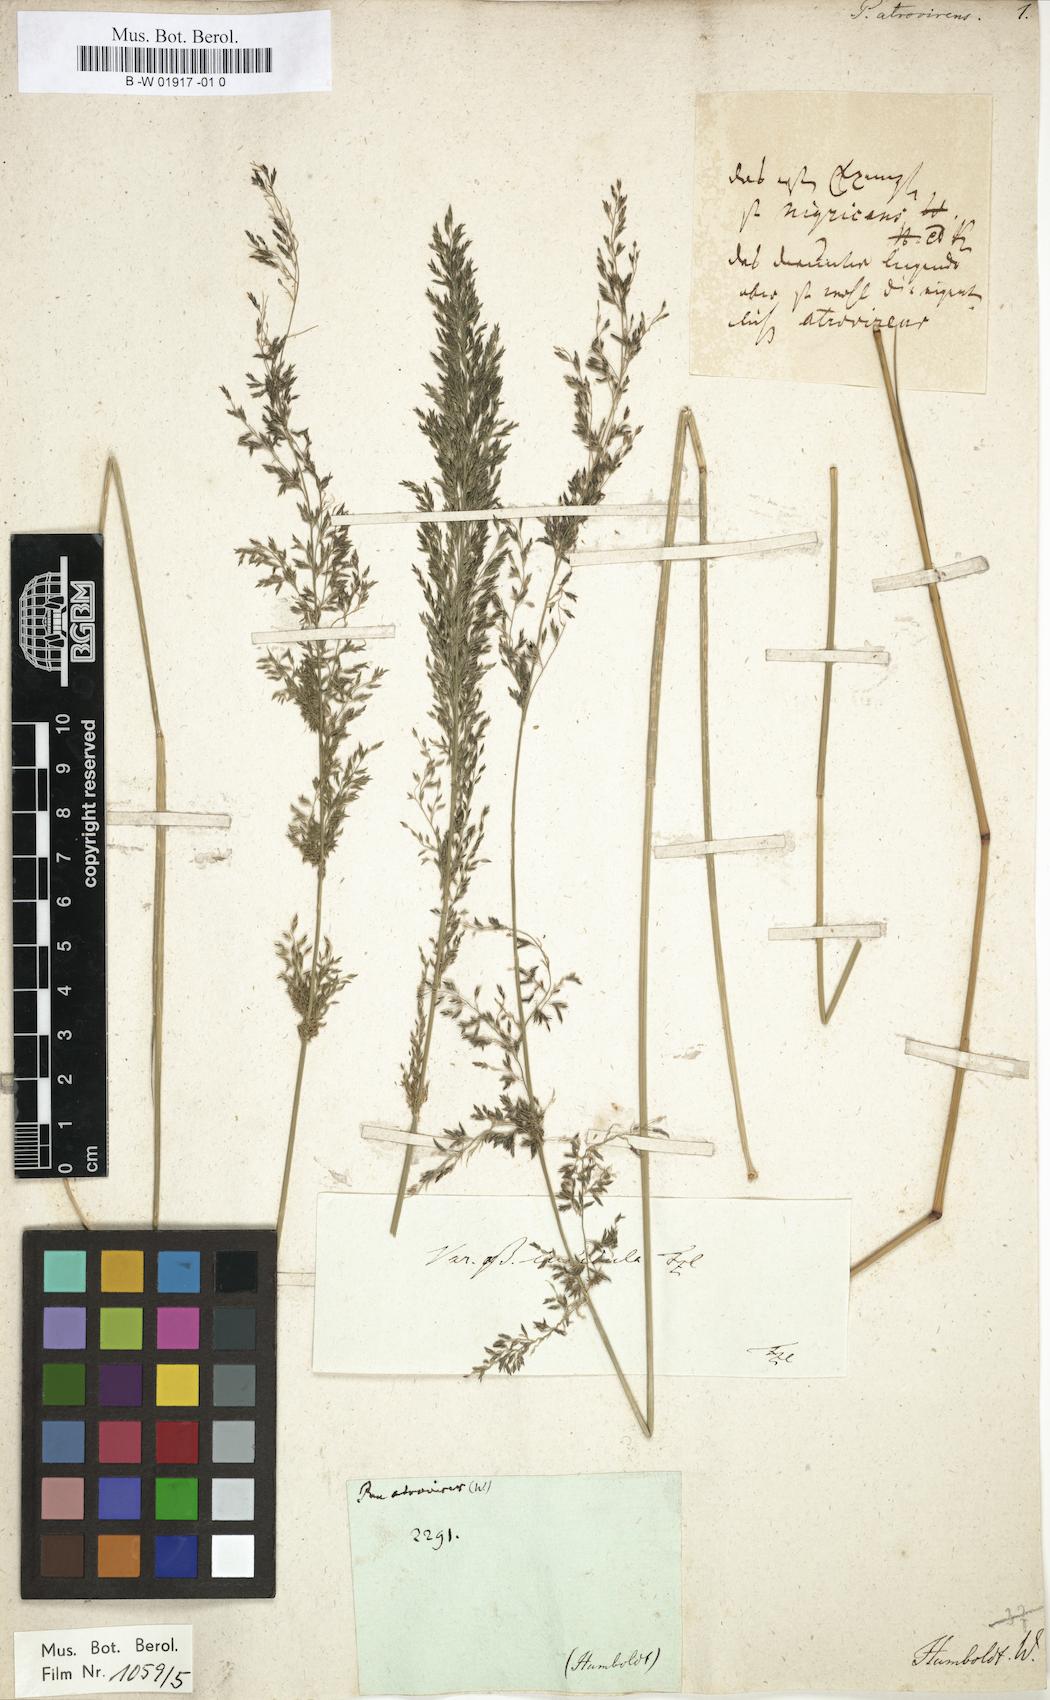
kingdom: Plantae
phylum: Tracheophyta
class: Liliopsida
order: Poales
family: Poaceae
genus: Eragrostis
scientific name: Eragrostis
